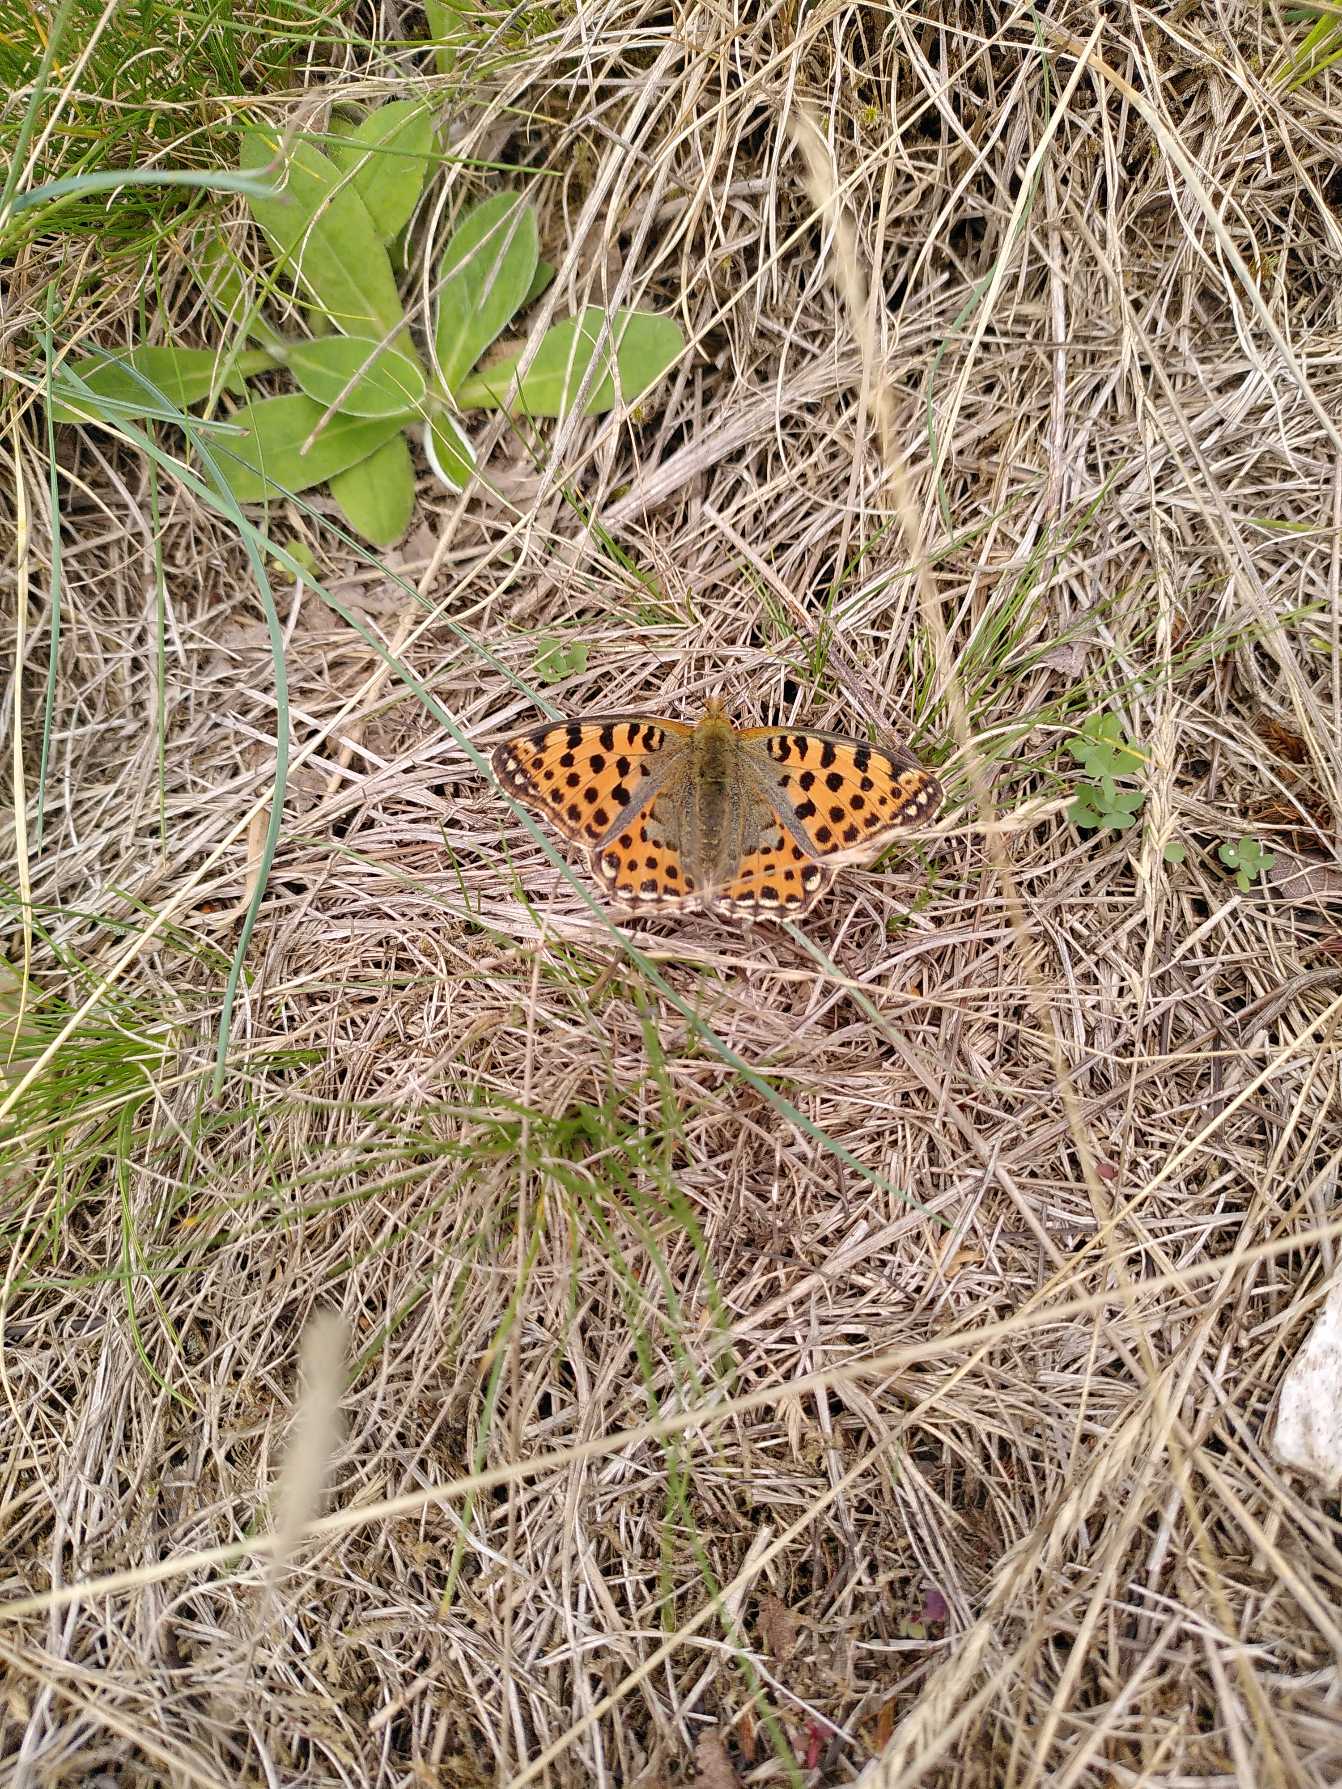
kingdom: Animalia
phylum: Arthropoda
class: Insecta
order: Lepidoptera
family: Nymphalidae
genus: Issoria
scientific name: Issoria lathonia
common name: Storplettet perlemorsommerfugl
